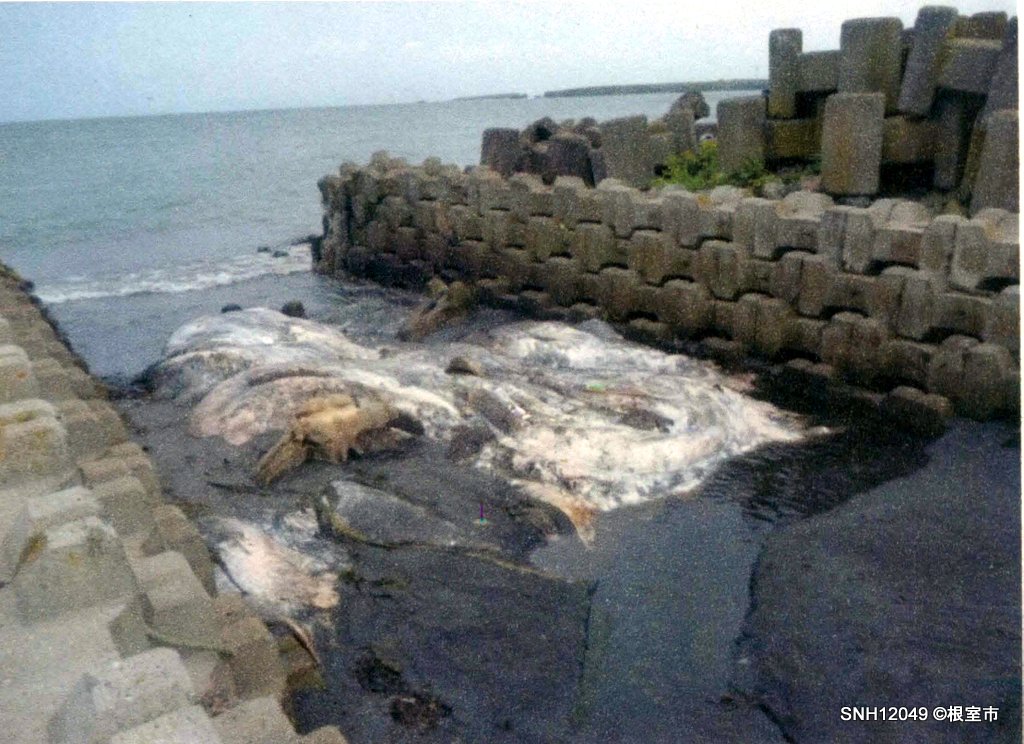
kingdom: Animalia
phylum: Chordata
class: Mammalia
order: Cetacea
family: Physeteridae
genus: Physeter
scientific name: Physeter macrocephalus
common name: Sperm whale
